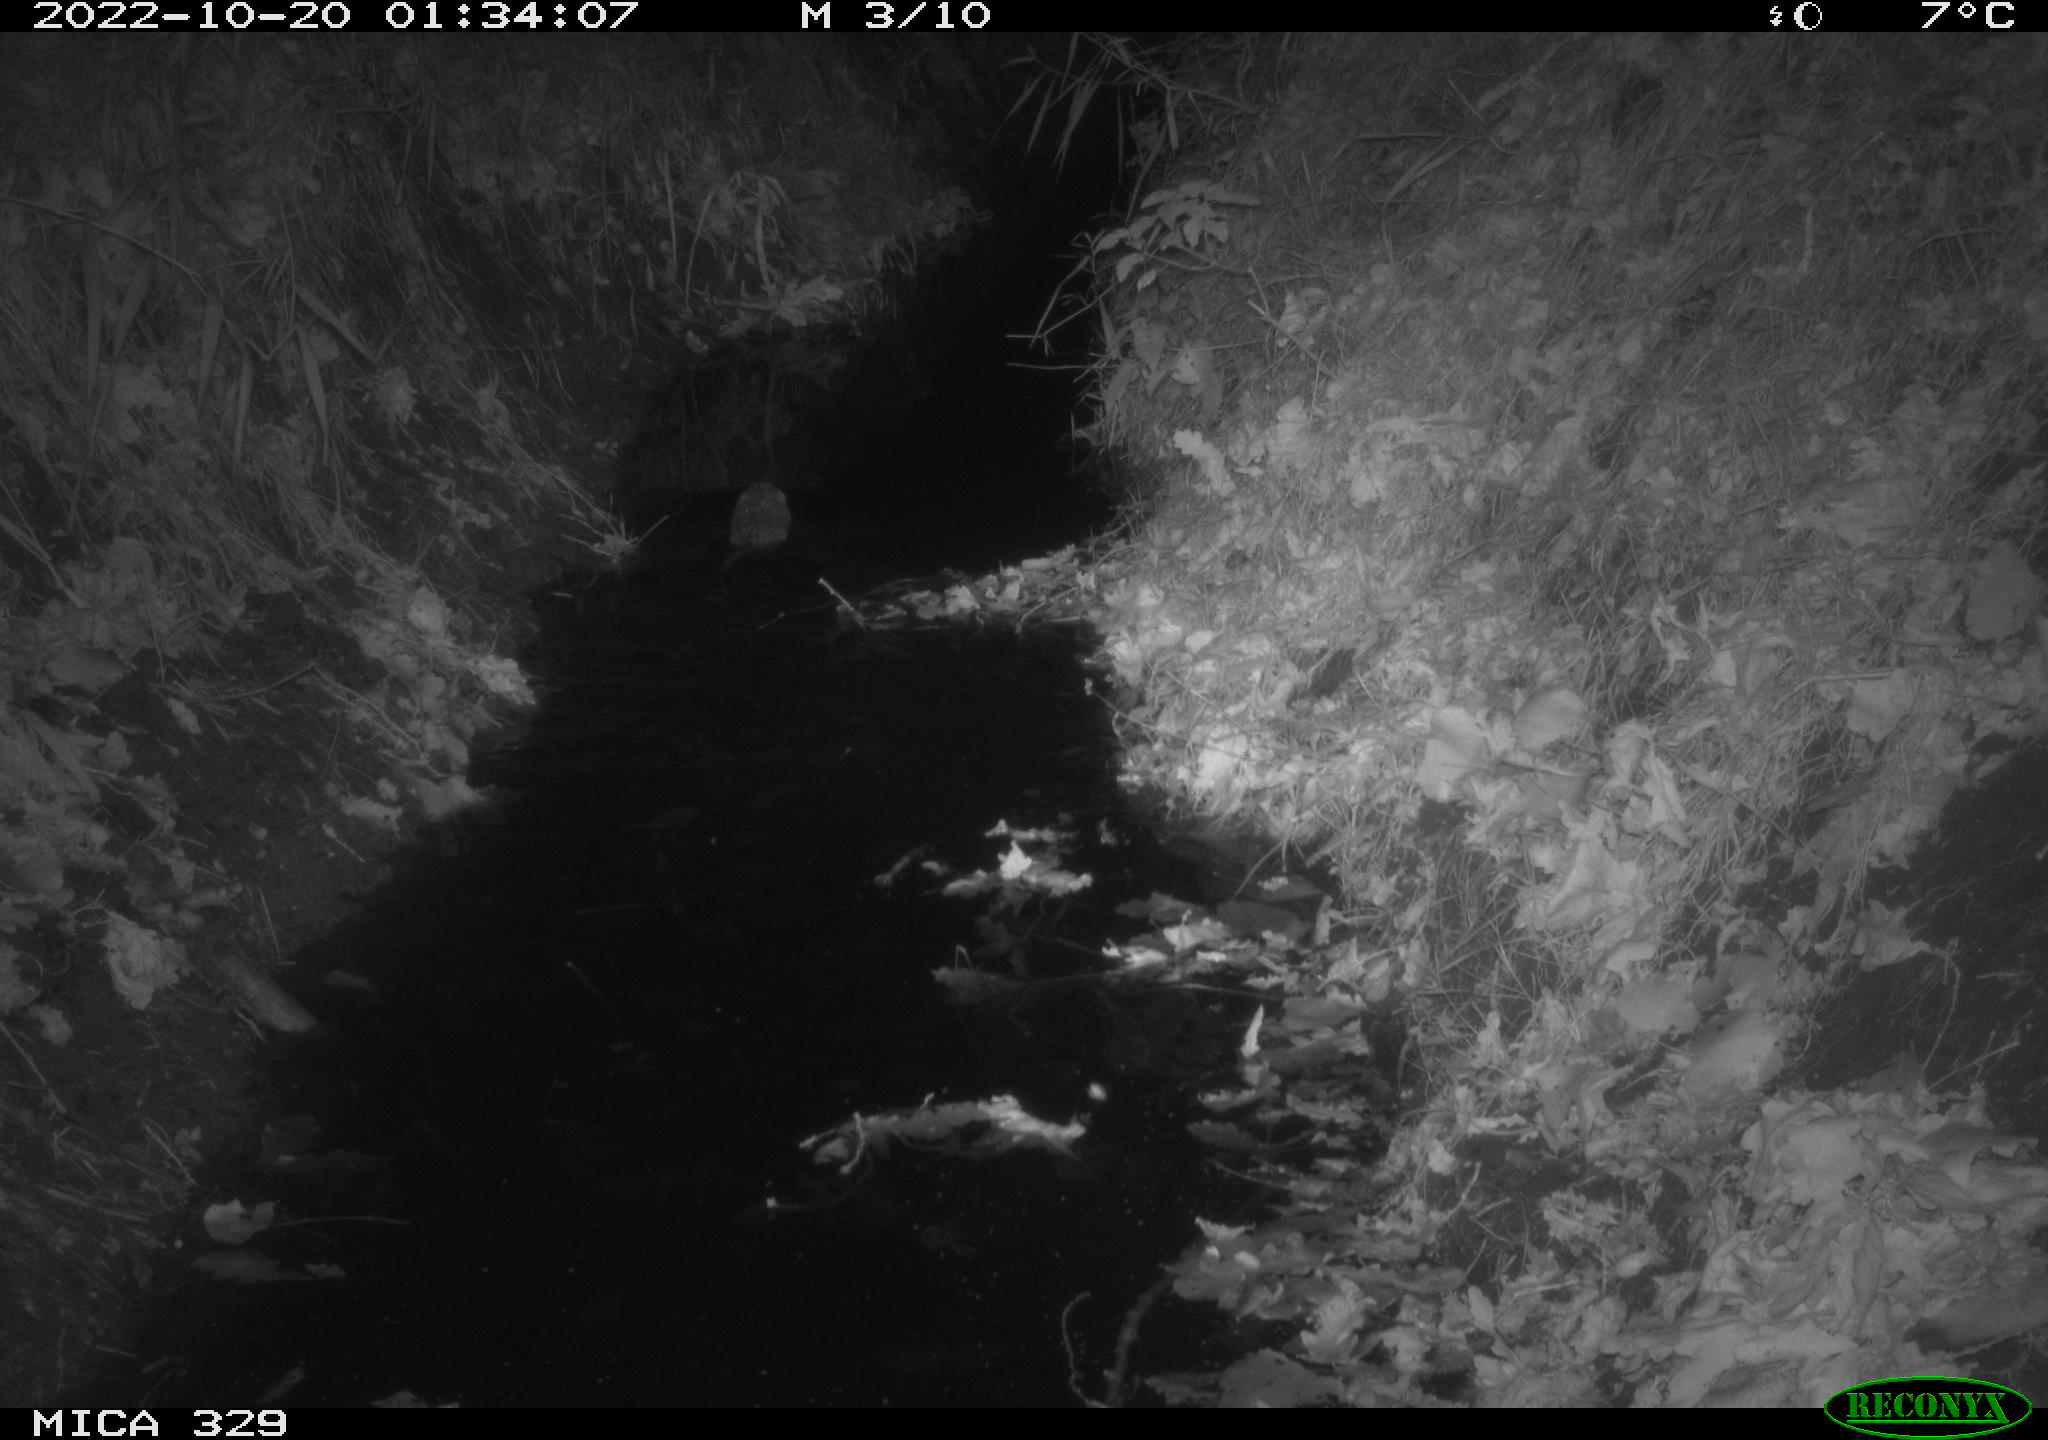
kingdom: Animalia
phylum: Chordata
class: Mammalia
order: Rodentia
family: Cricetidae
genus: Ondatra
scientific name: Ondatra zibethicus
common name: Muskrat
